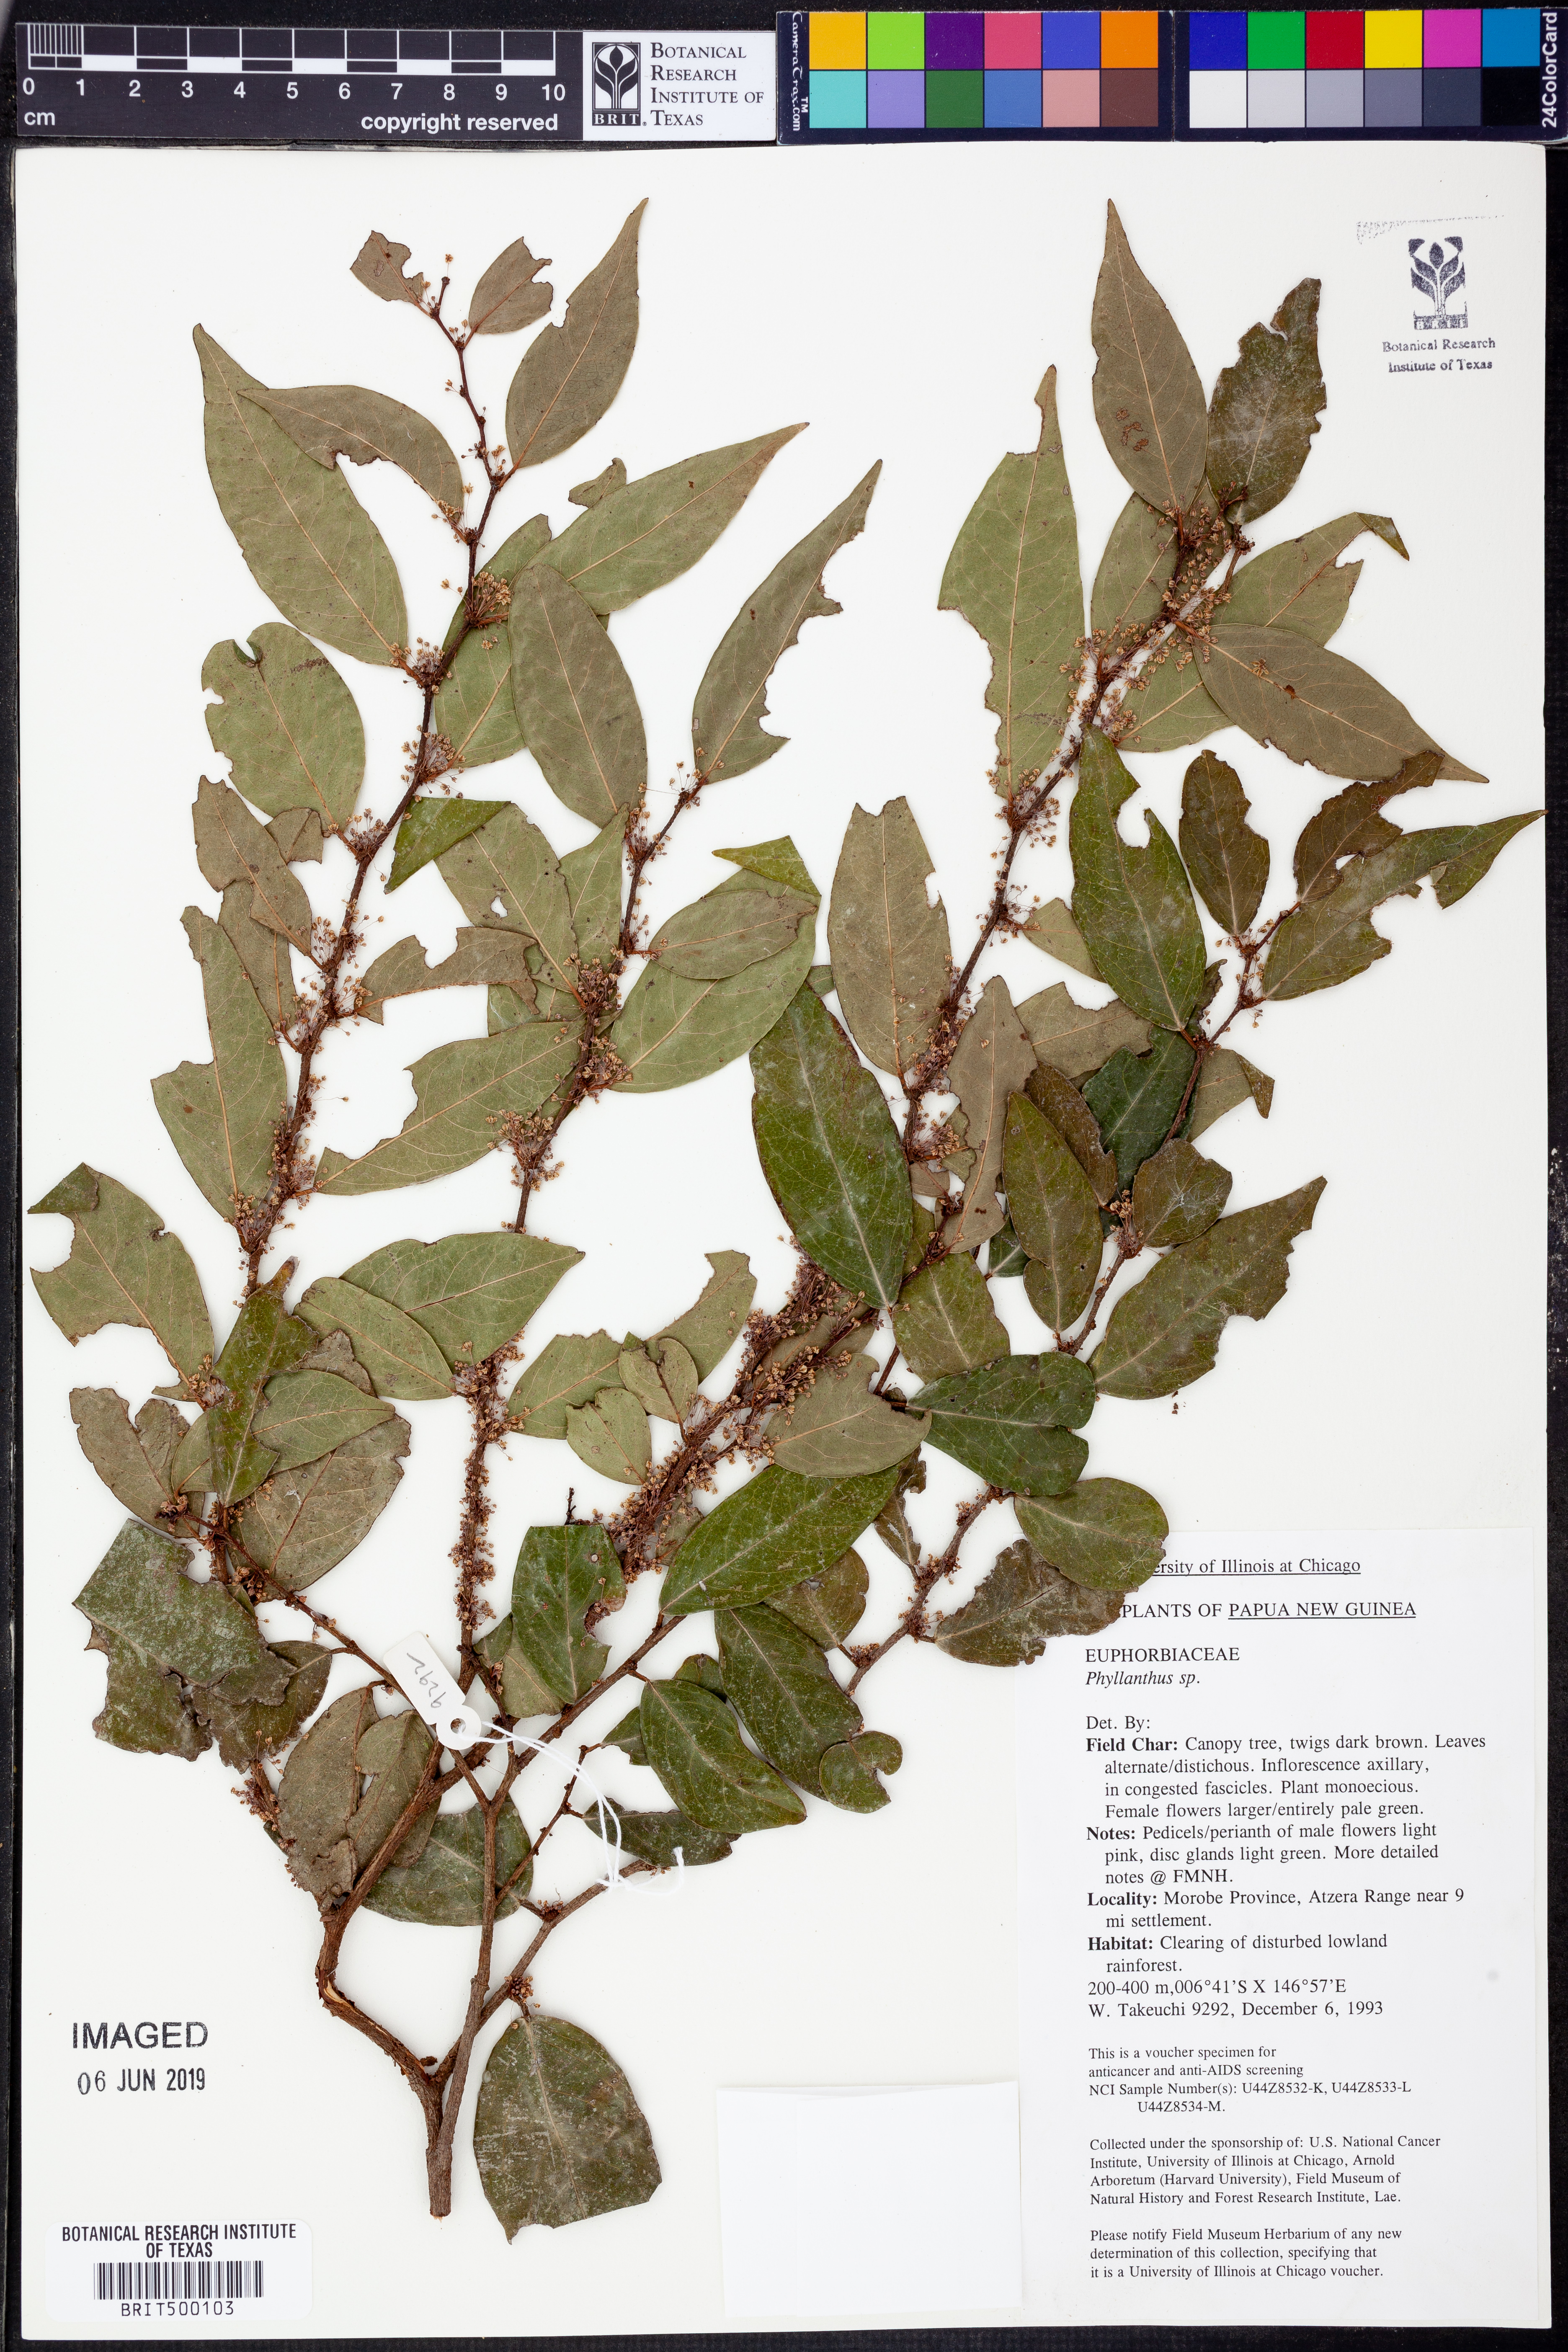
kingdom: Plantae
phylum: Tracheophyta
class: Magnoliopsida
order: Malpighiales
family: Phyllanthaceae
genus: Phyllanthus
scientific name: Phyllanthus
